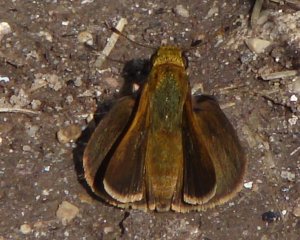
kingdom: Animalia
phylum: Arthropoda
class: Insecta
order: Lepidoptera
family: Hesperiidae
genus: Euphyes
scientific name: Euphyes vestris
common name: Dun Skipper
